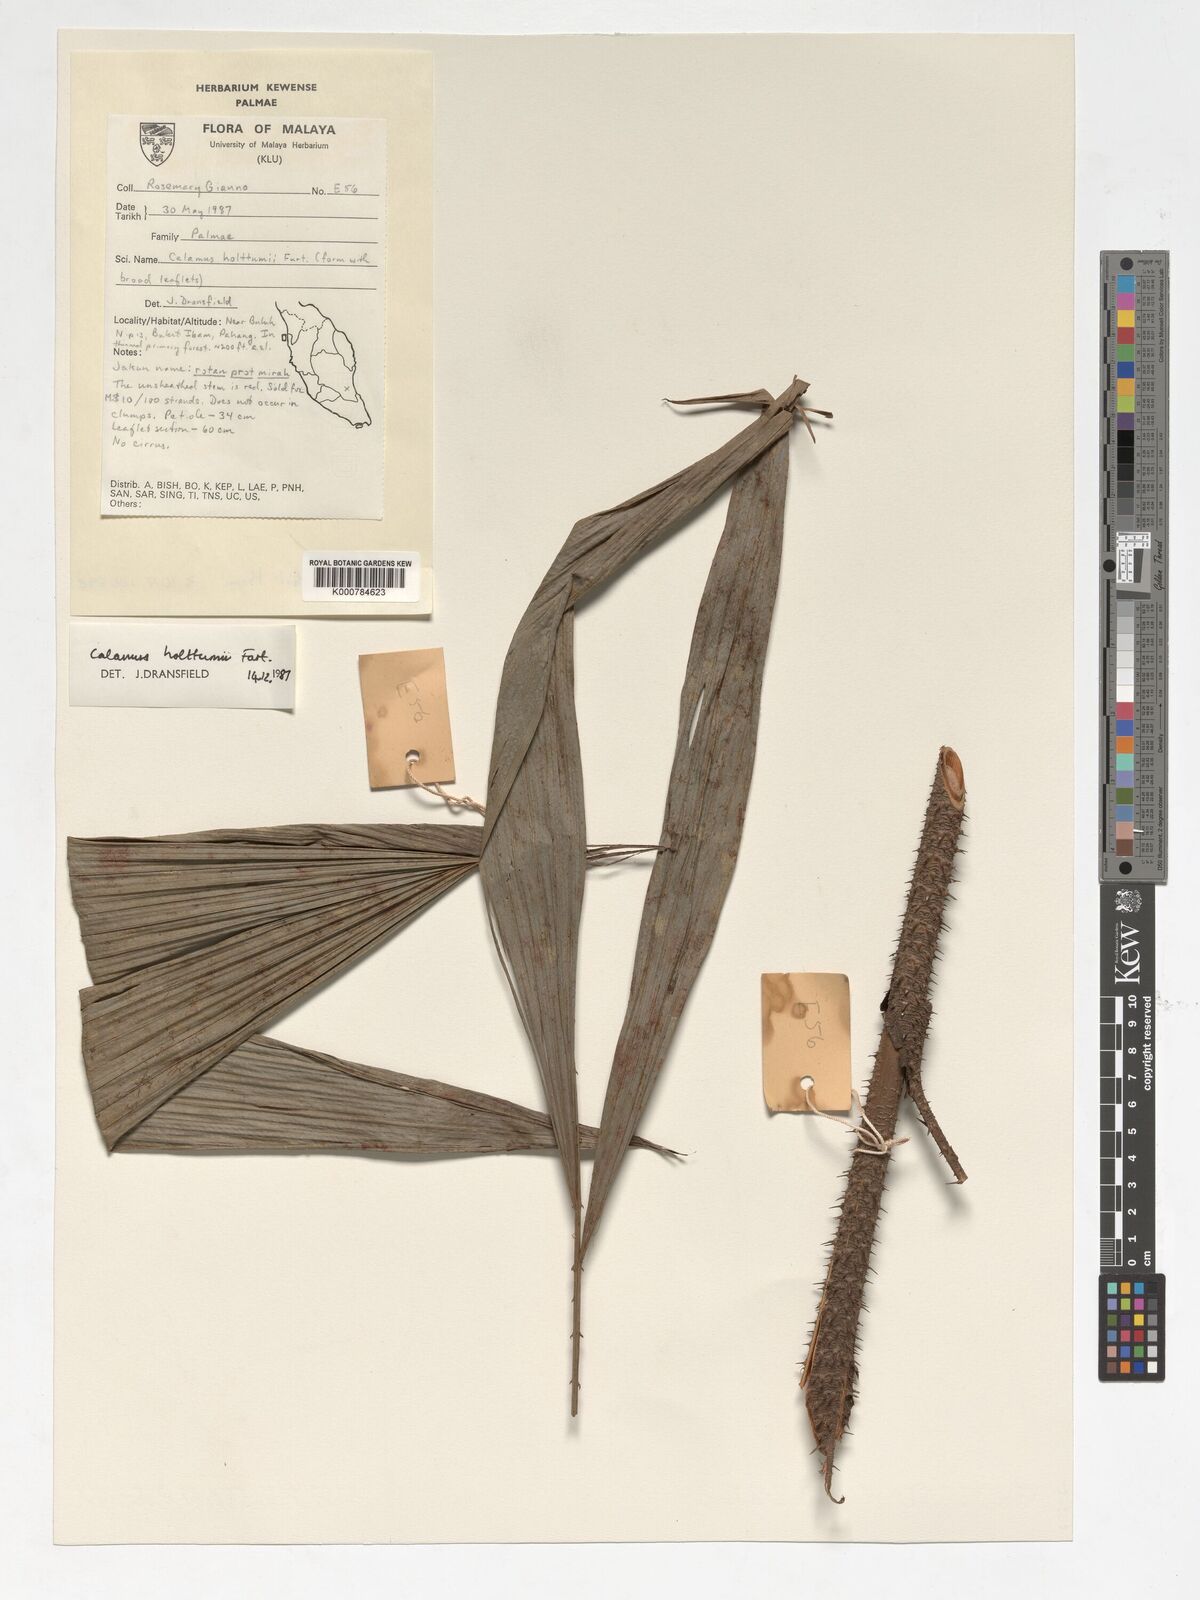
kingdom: Plantae
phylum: Tracheophyta
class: Liliopsida
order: Arecales
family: Arecaceae
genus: Calamus
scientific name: Calamus holttumii
